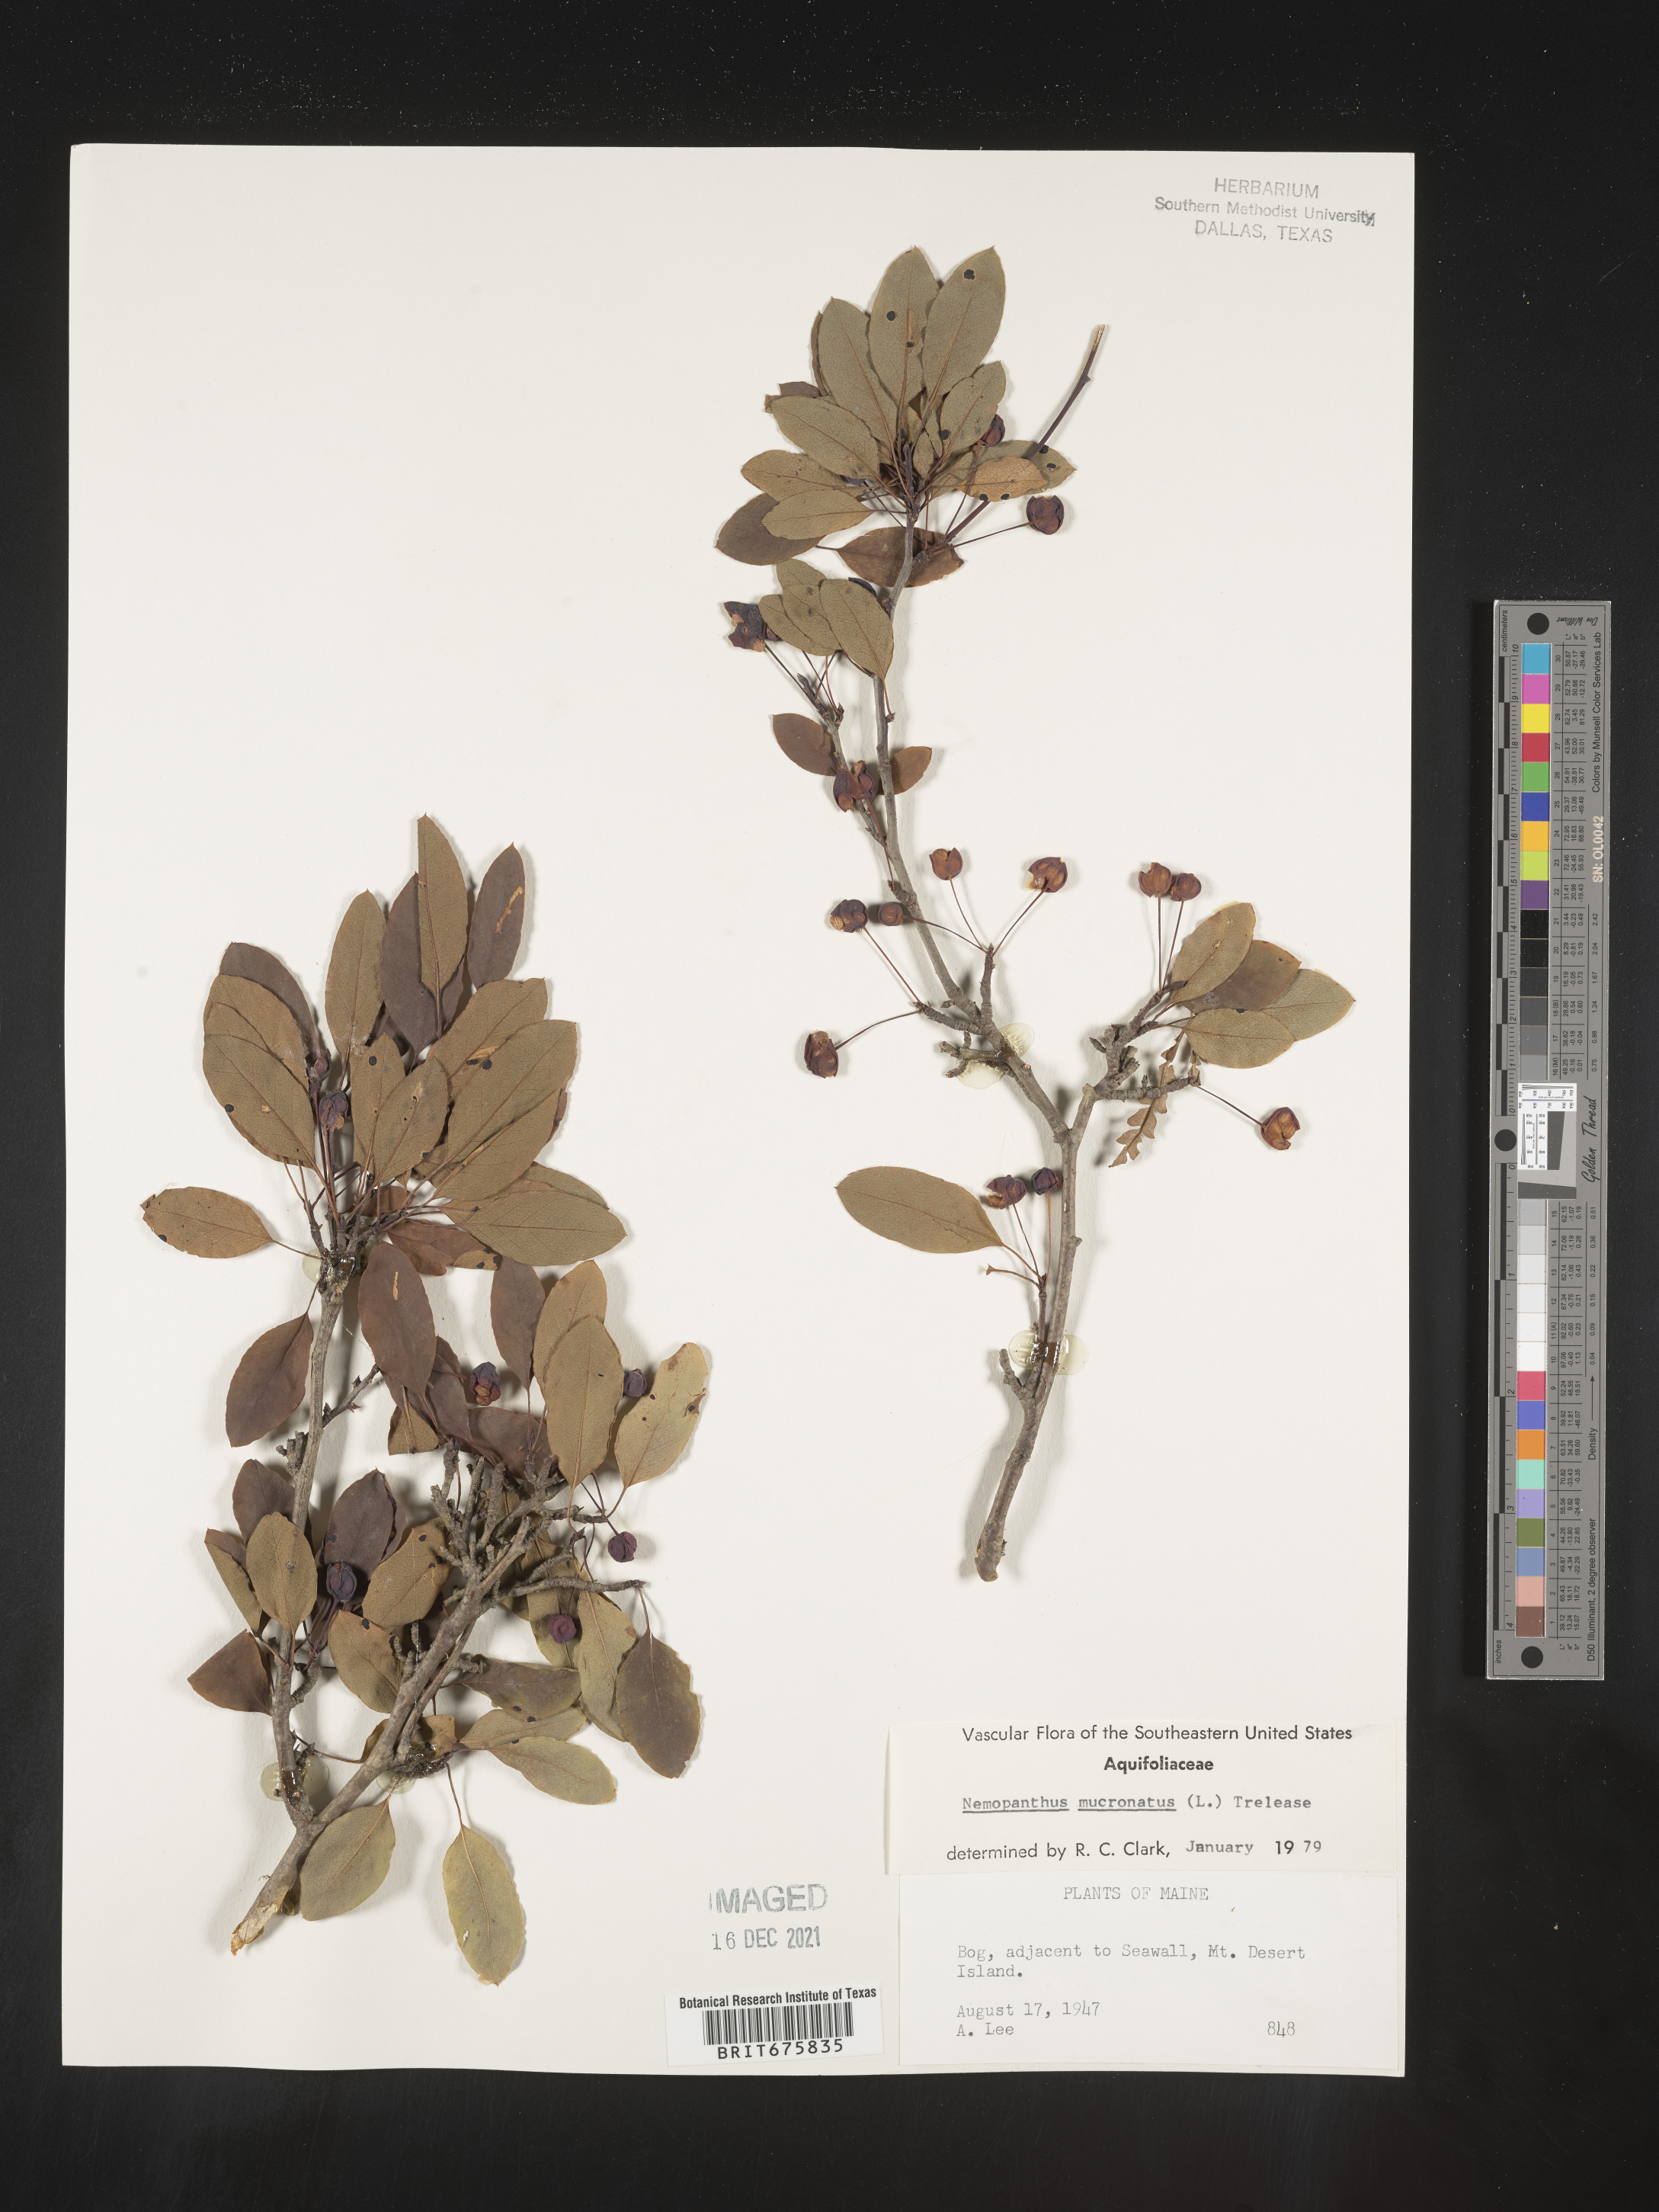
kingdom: Plantae
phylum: Tracheophyta
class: Magnoliopsida
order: Aquifoliales
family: Aquifoliaceae
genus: Ilex
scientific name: Ilex mucronata
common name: Catberry
